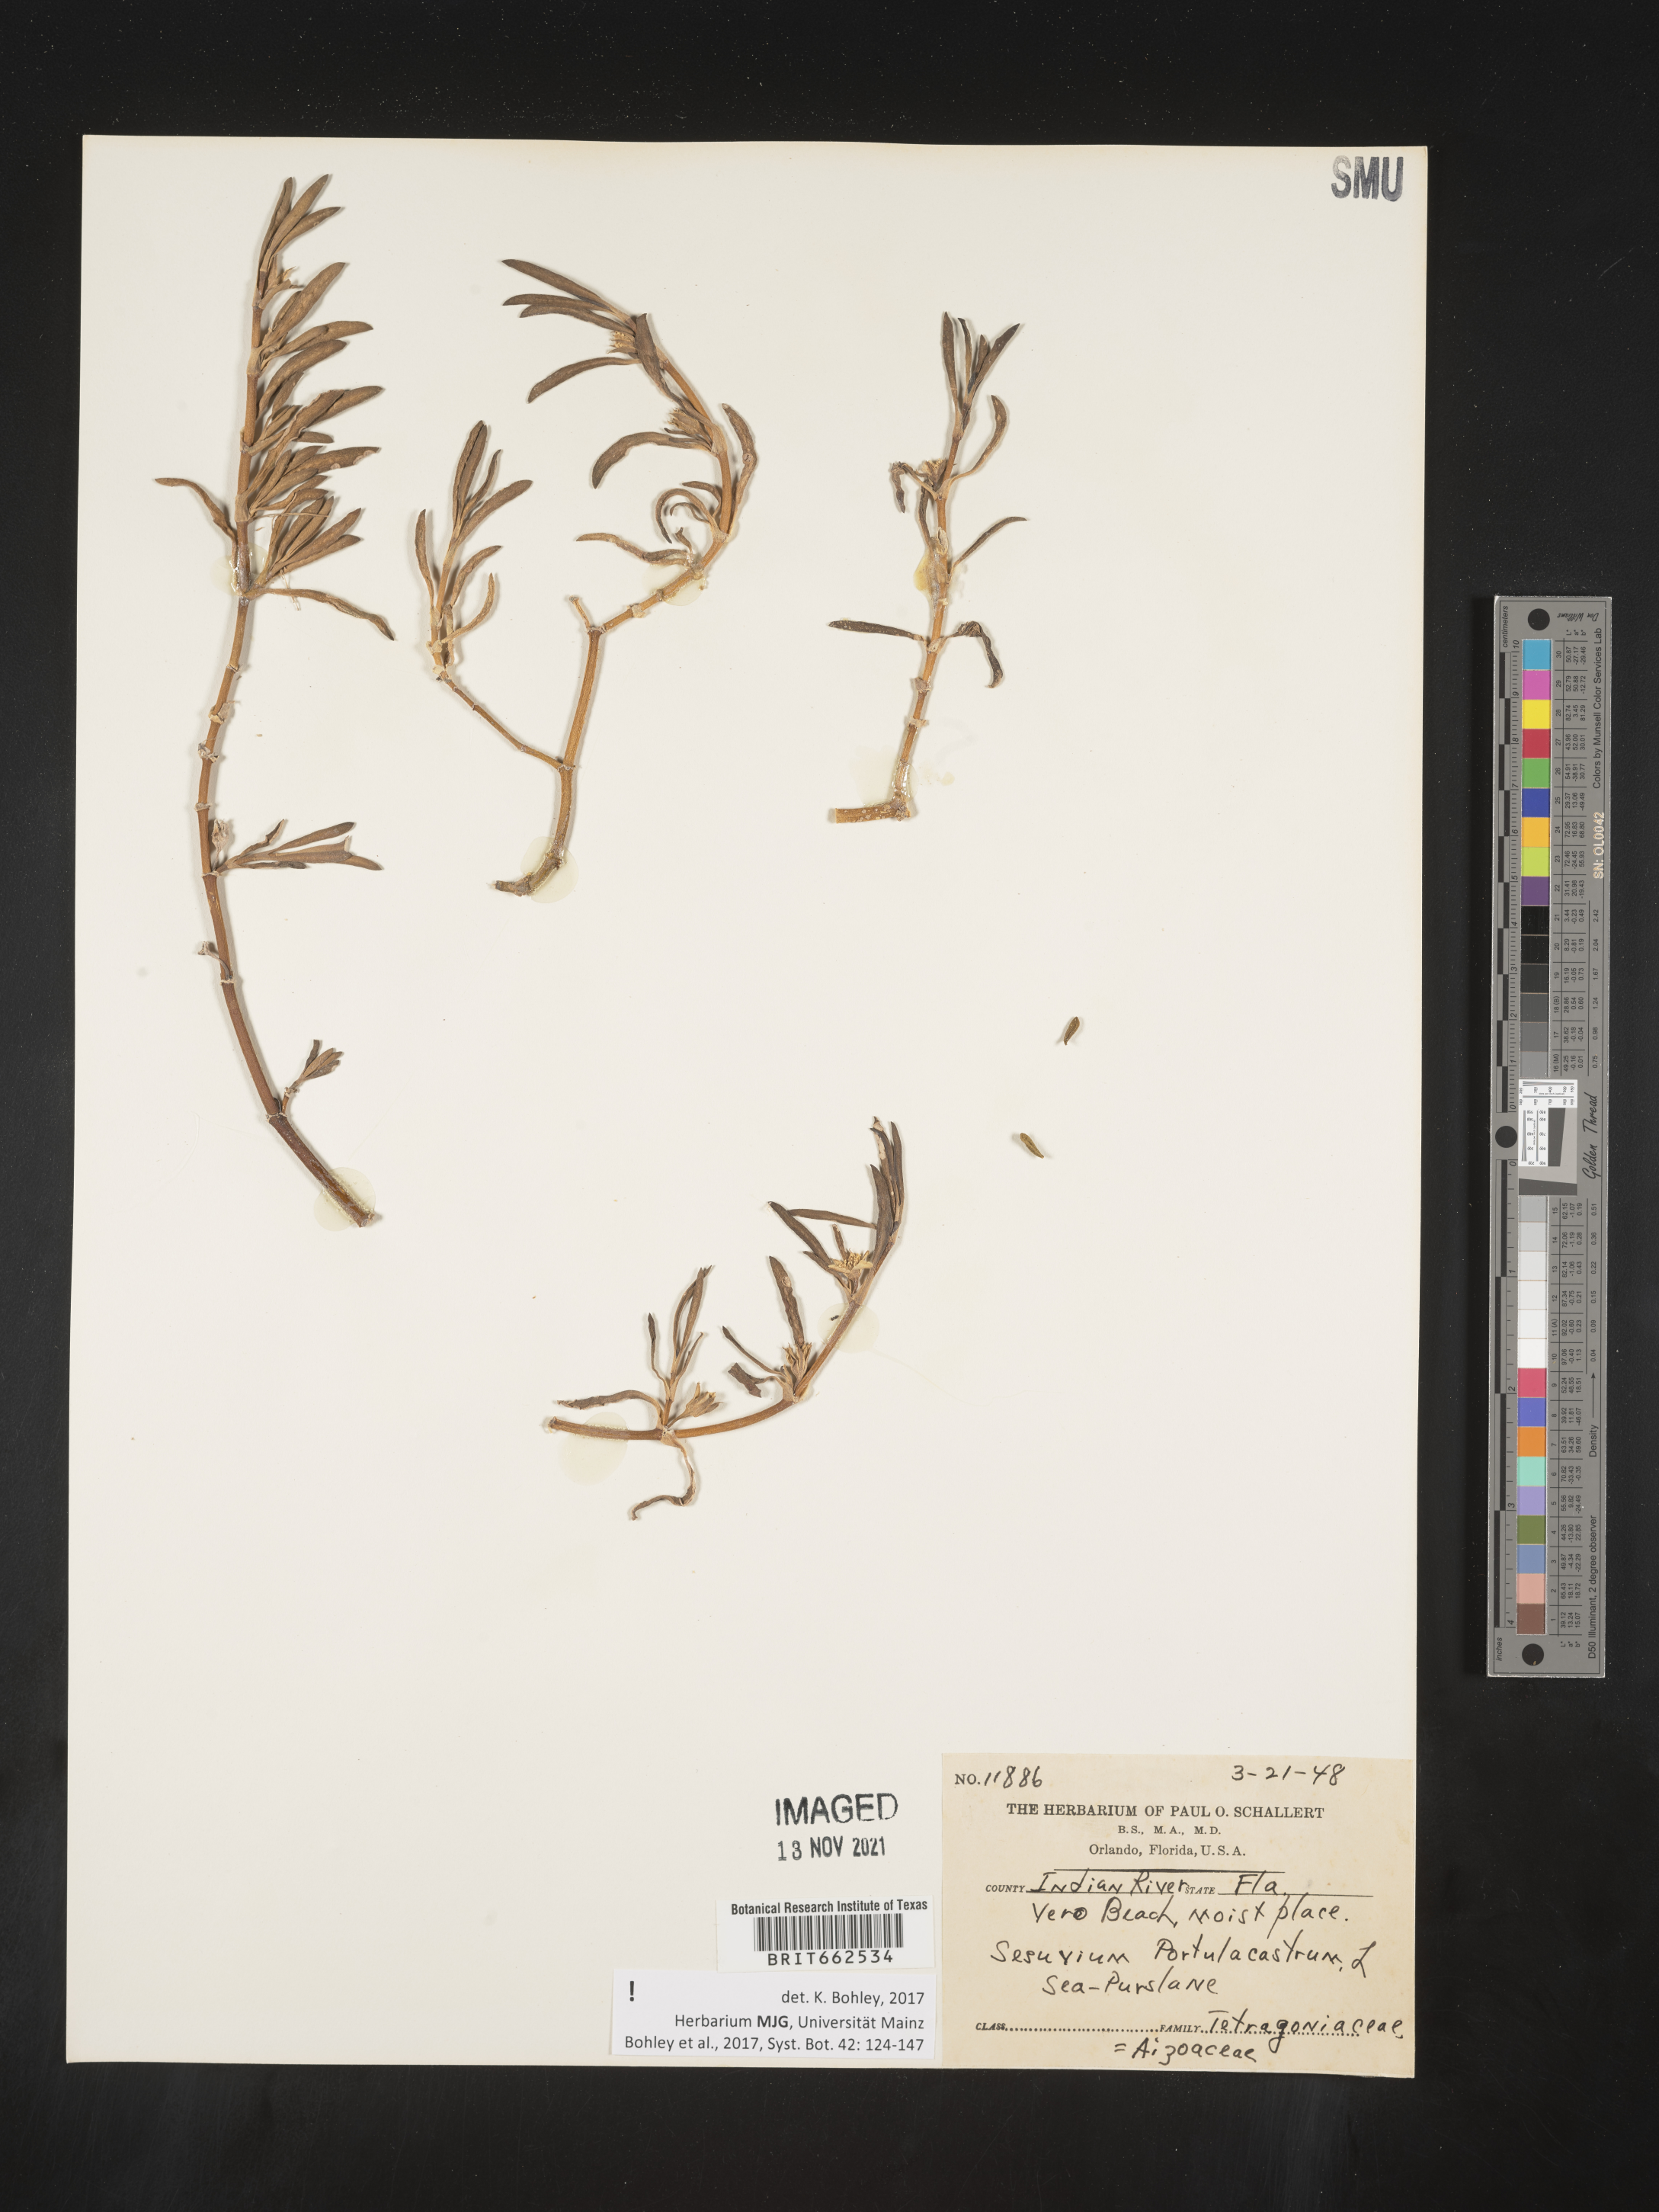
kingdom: Plantae
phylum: Tracheophyta
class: Magnoliopsida
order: Caryophyllales
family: Aizoaceae
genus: Sesuvium
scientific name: Sesuvium portulacastrum
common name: Sea-purslane
